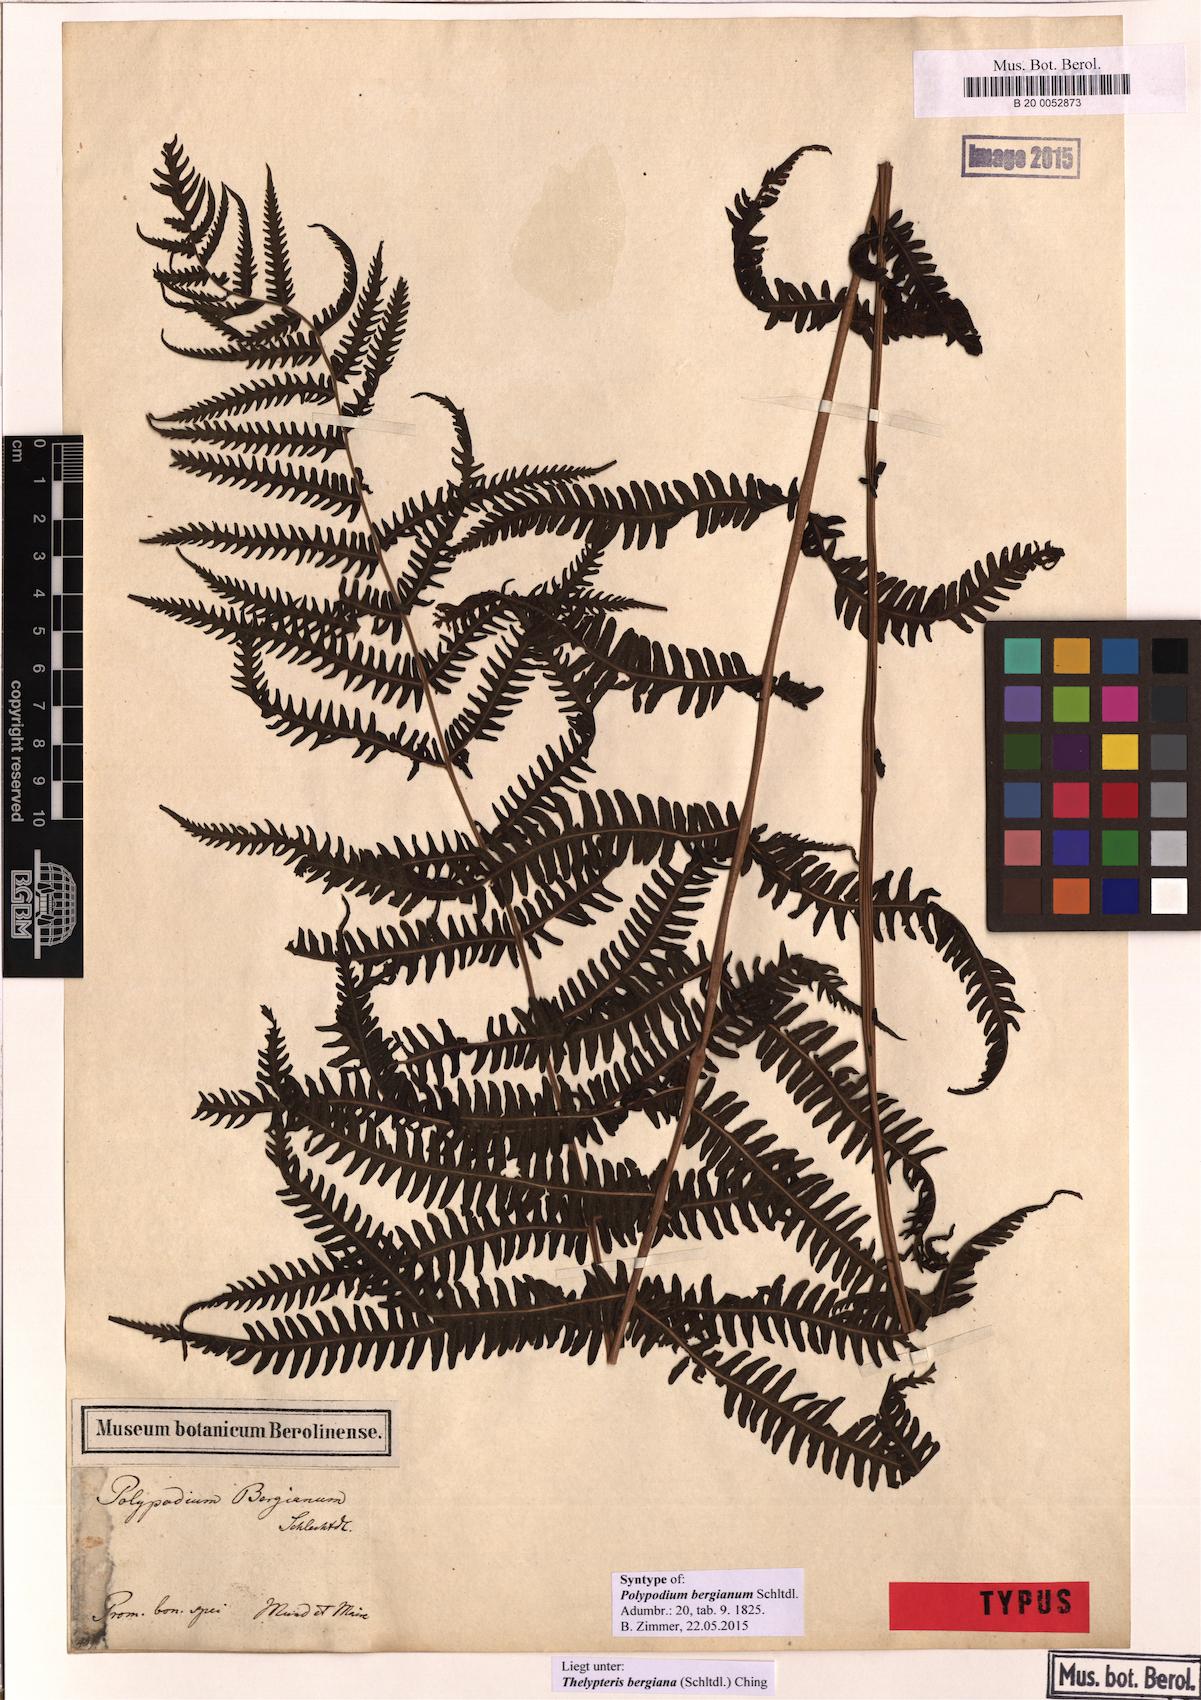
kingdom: Plantae
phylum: Tracheophyta
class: Polypodiopsida
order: Polypodiales
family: Thelypteridaceae
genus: Amauropelta
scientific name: Amauropelta bergiana
